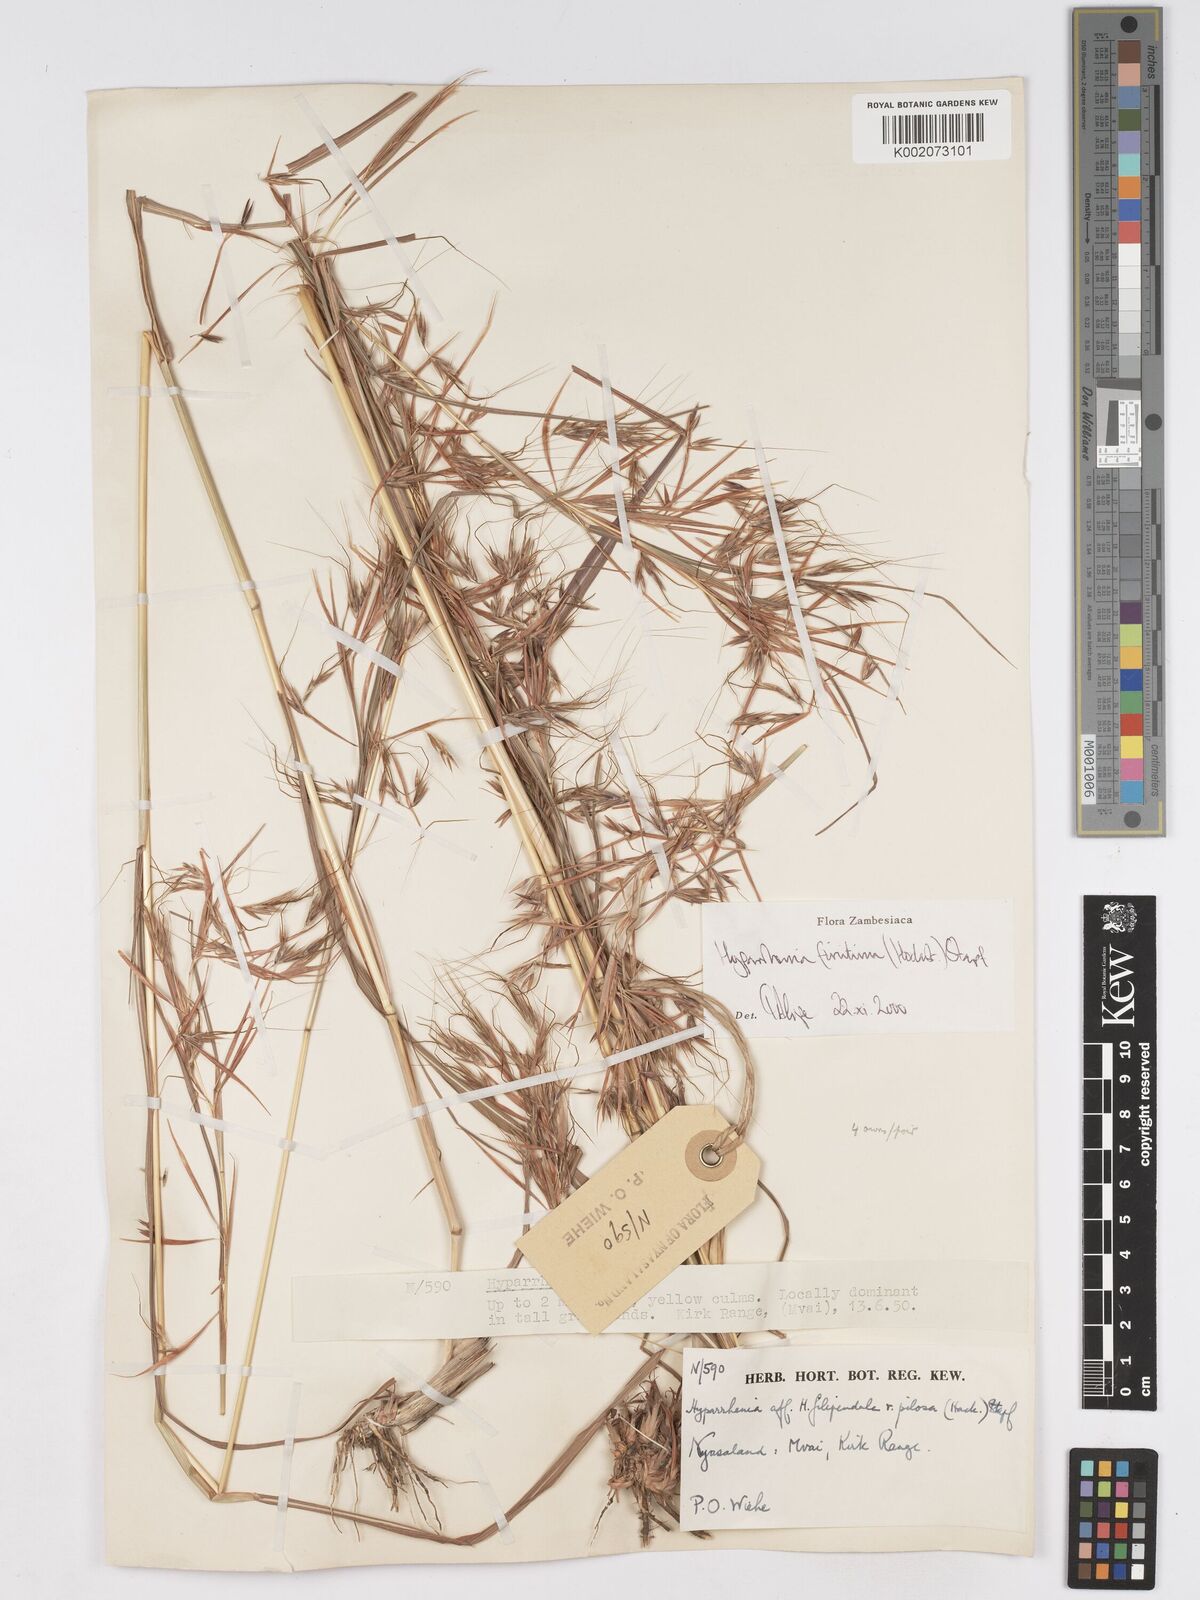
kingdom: Plantae
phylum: Tracheophyta
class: Liliopsida
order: Poales
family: Poaceae
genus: Hyparrhenia
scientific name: Hyparrhenia finitima
